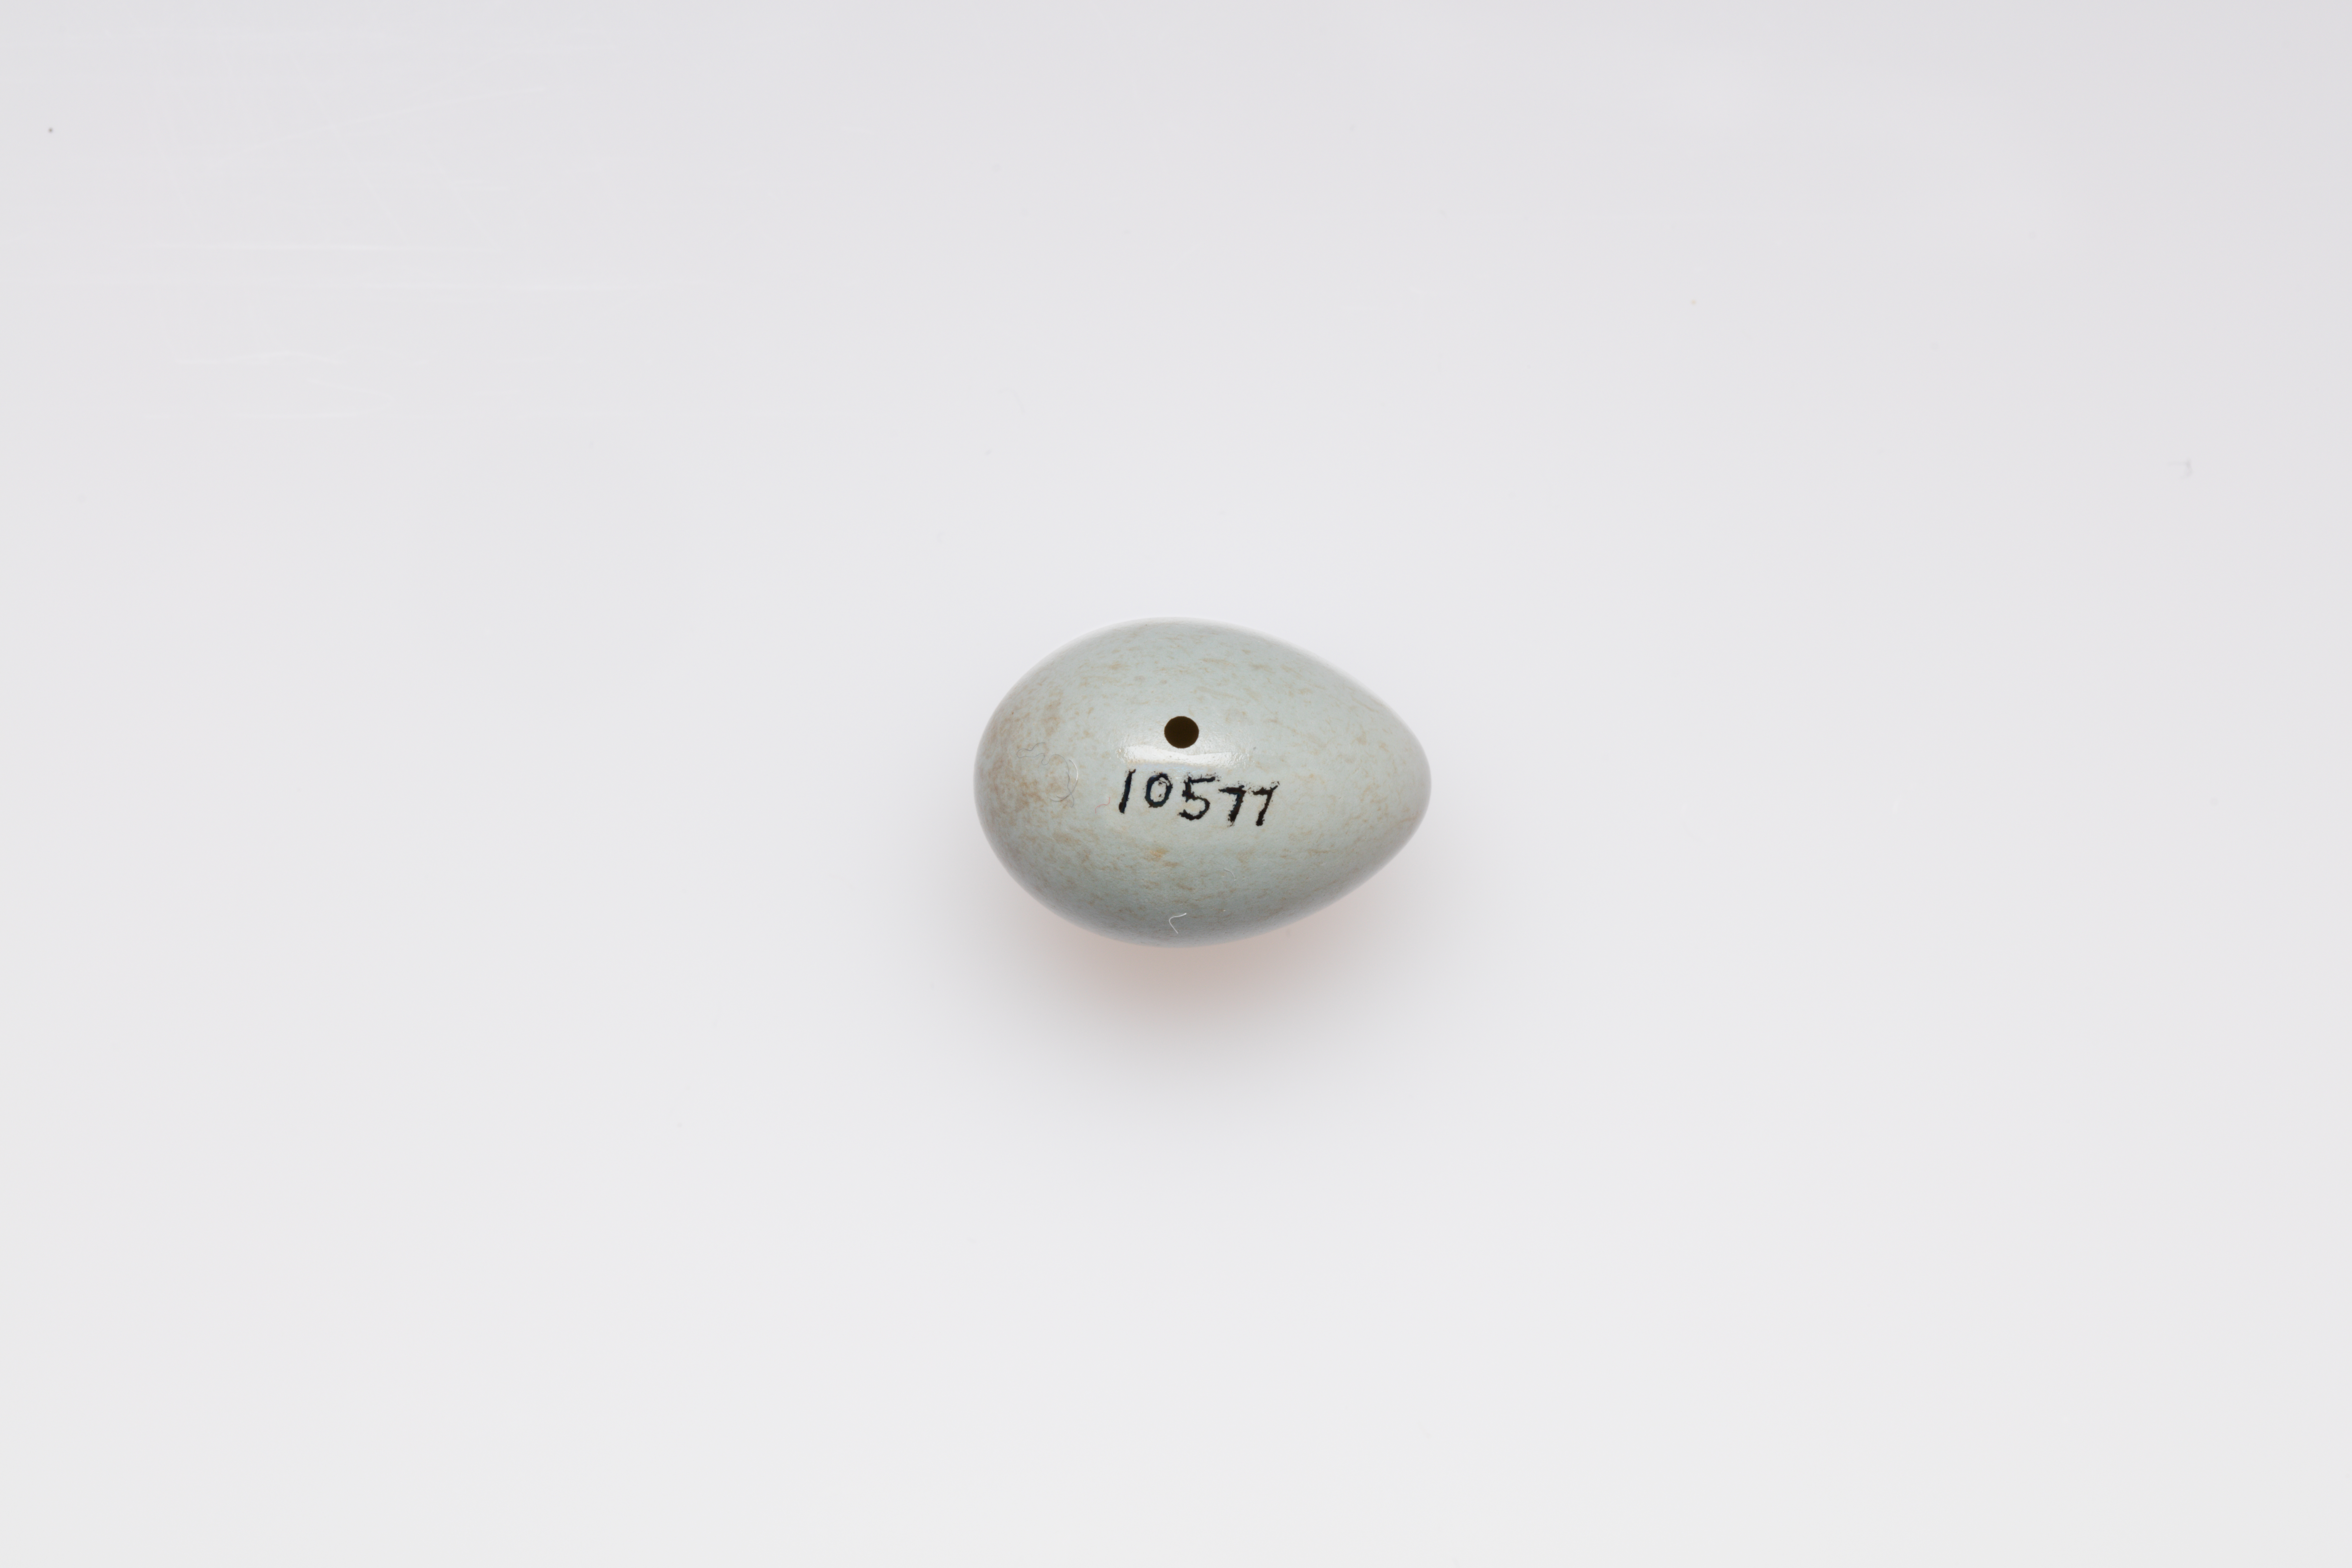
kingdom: Animalia
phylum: Chordata
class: Aves
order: Passeriformes
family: Muscicapidae
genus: Saxicola
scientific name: Saxicola torquatus
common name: African stonechat
